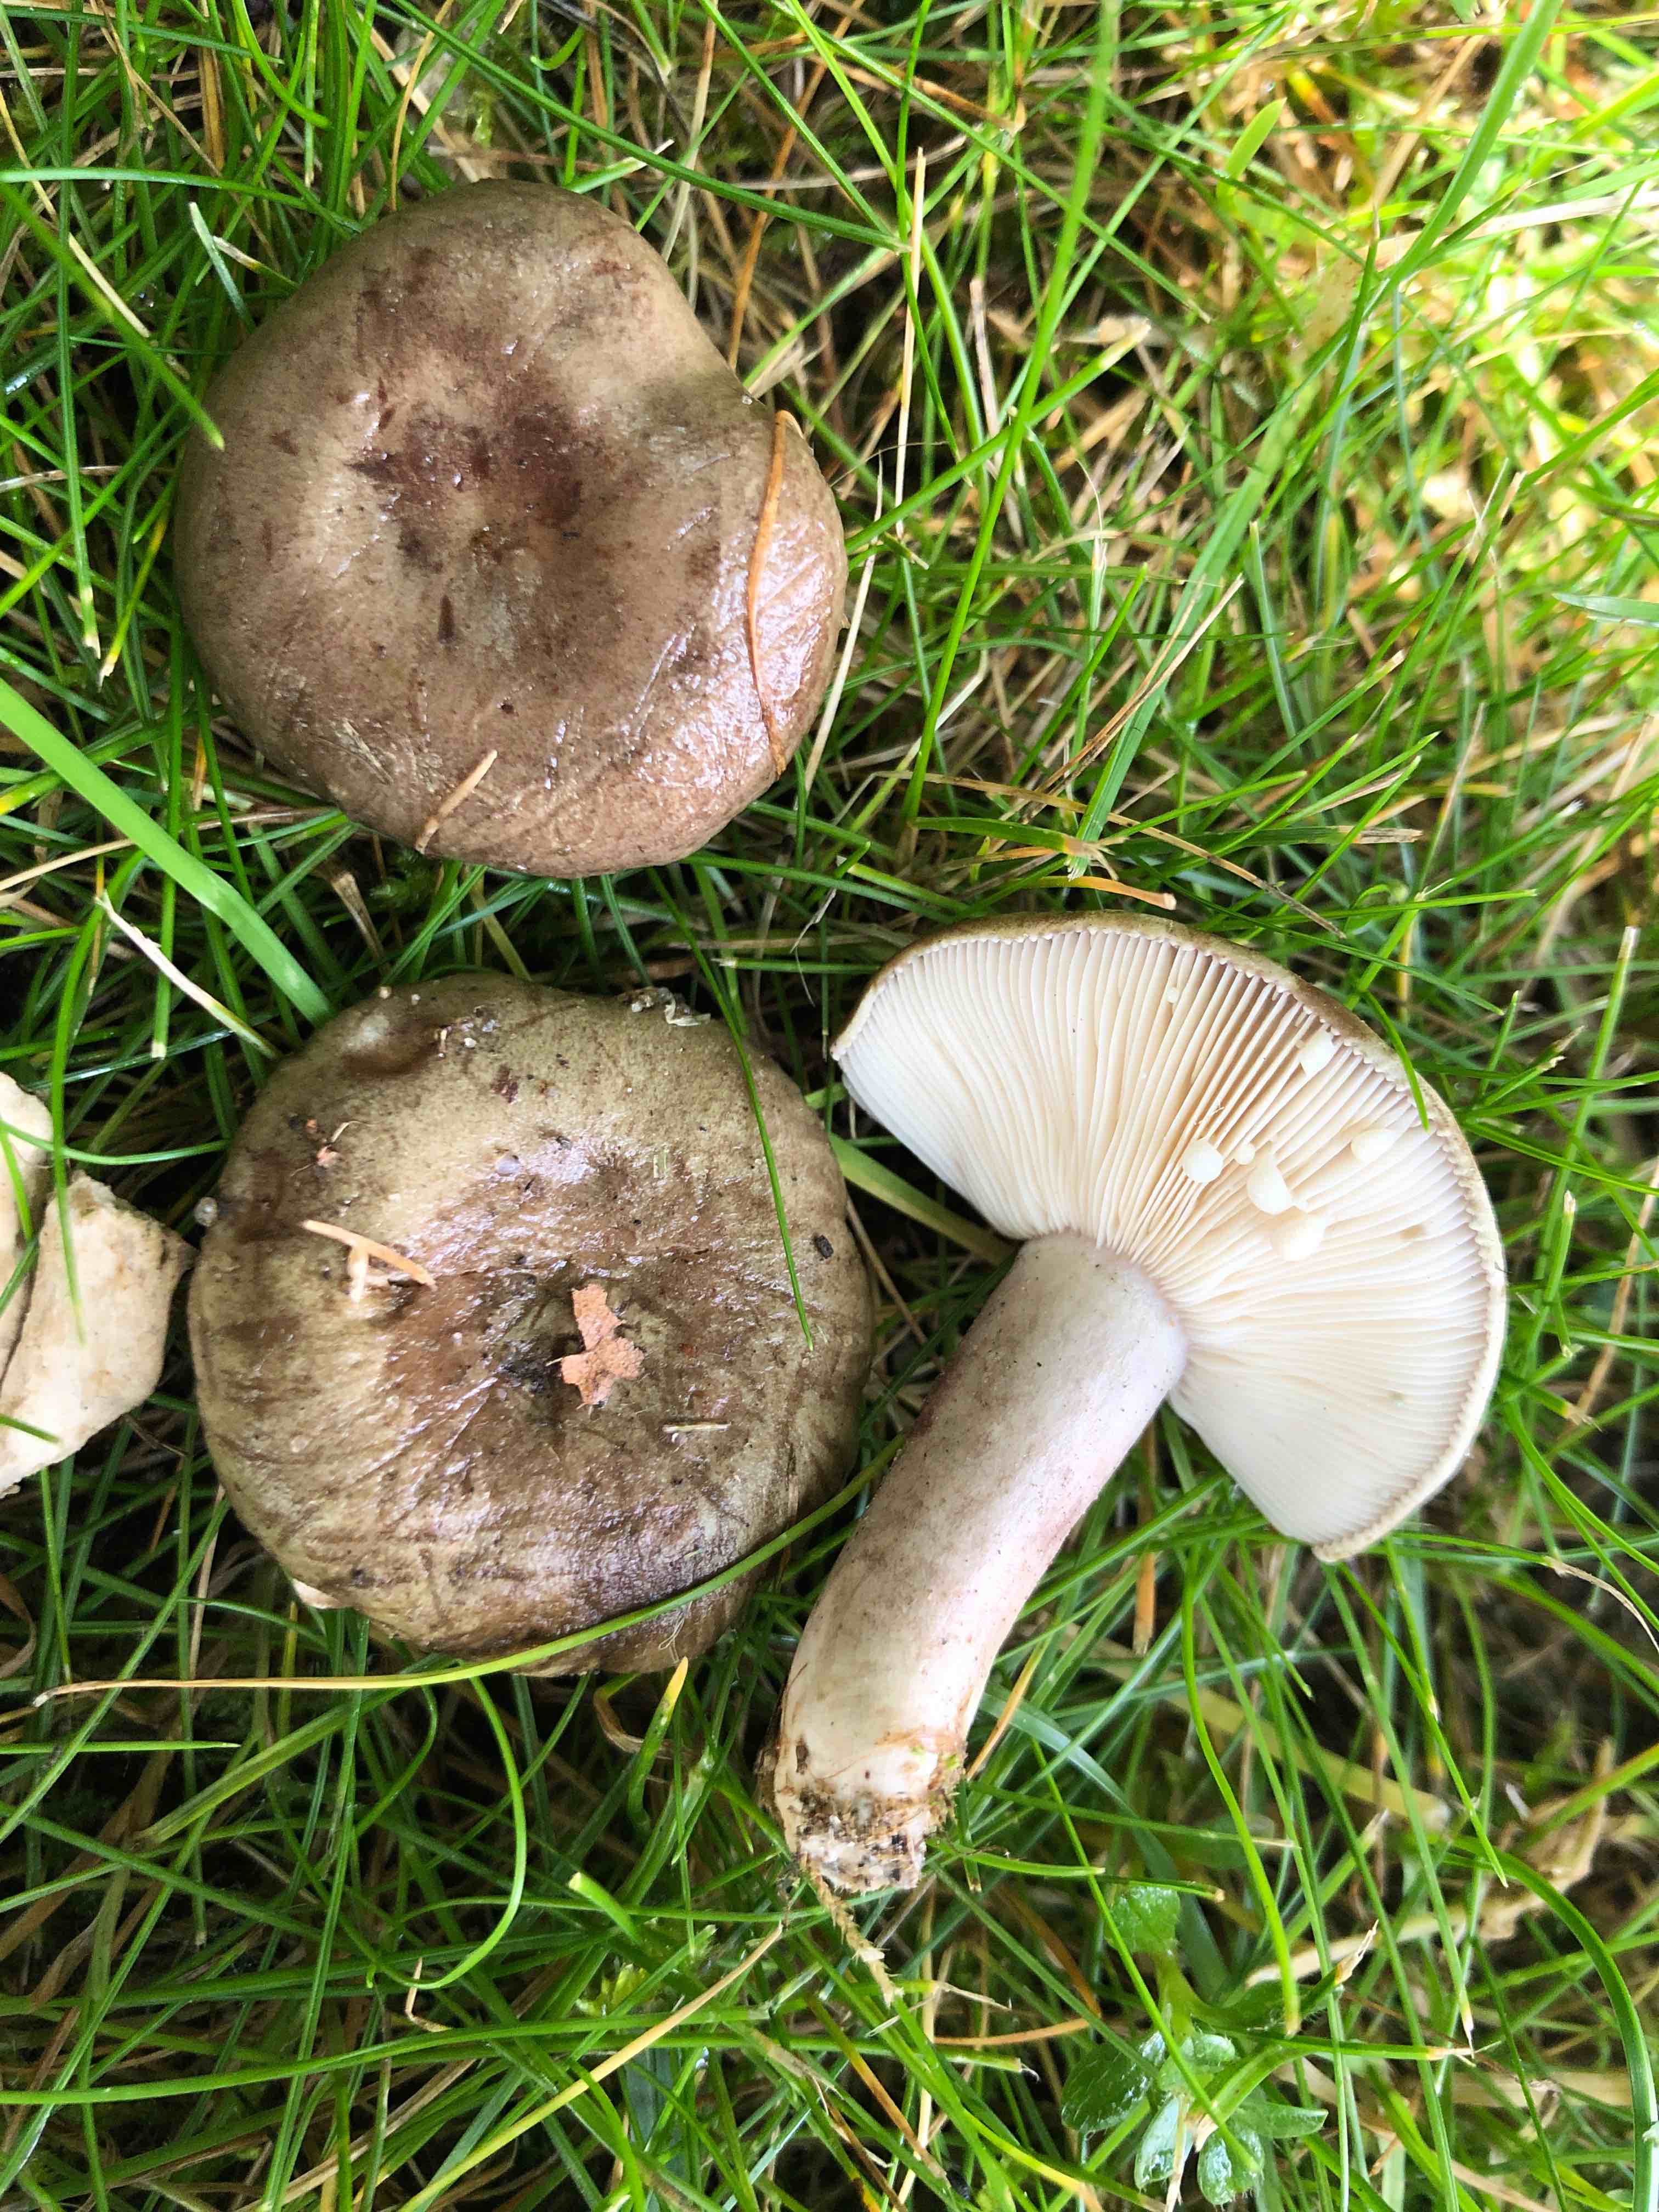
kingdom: Fungi
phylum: Basidiomycota
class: Agaricomycetes
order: Russulales
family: Russulaceae
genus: Lactarius
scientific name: Lactarius blennius
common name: dråbeplettet mælkehat
